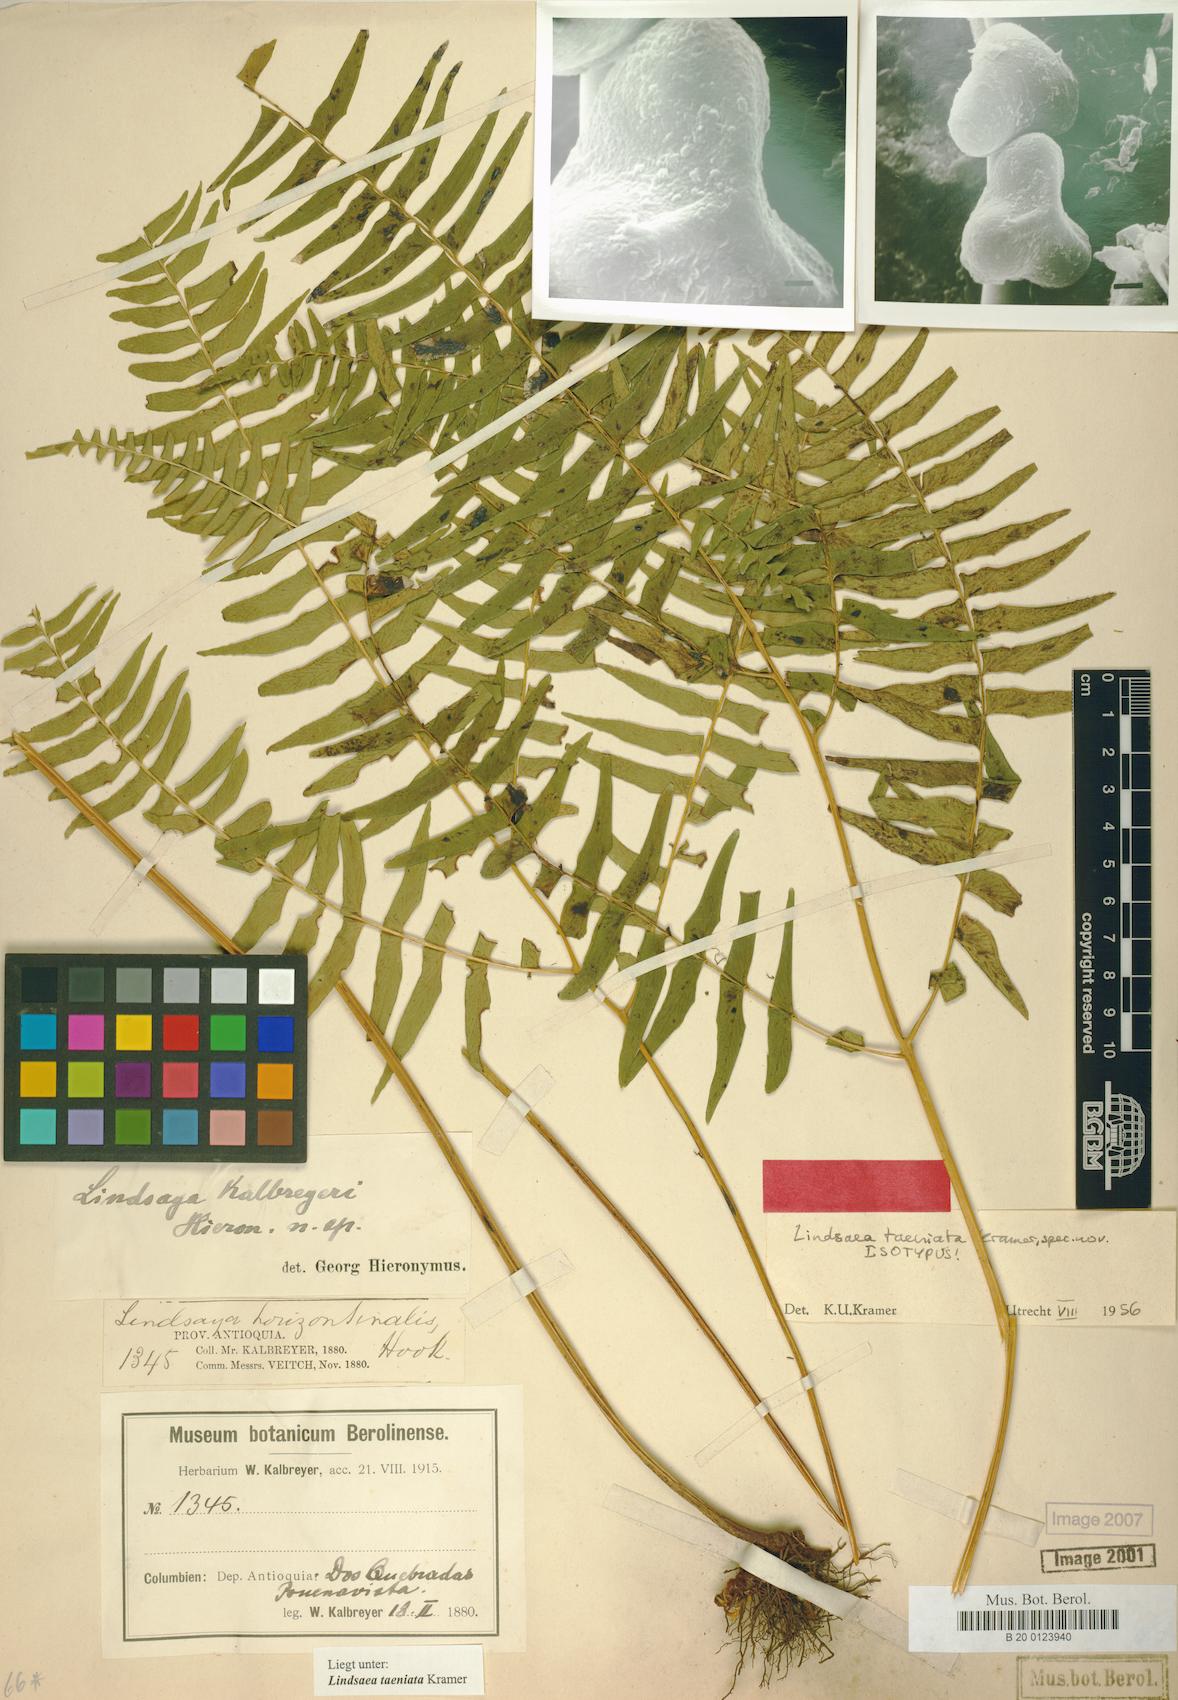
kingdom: Plantae
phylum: Tracheophyta
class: Polypodiopsida
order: Polypodiales
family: Lindsaeaceae
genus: Lindsaea
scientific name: Lindsaea taeniata
